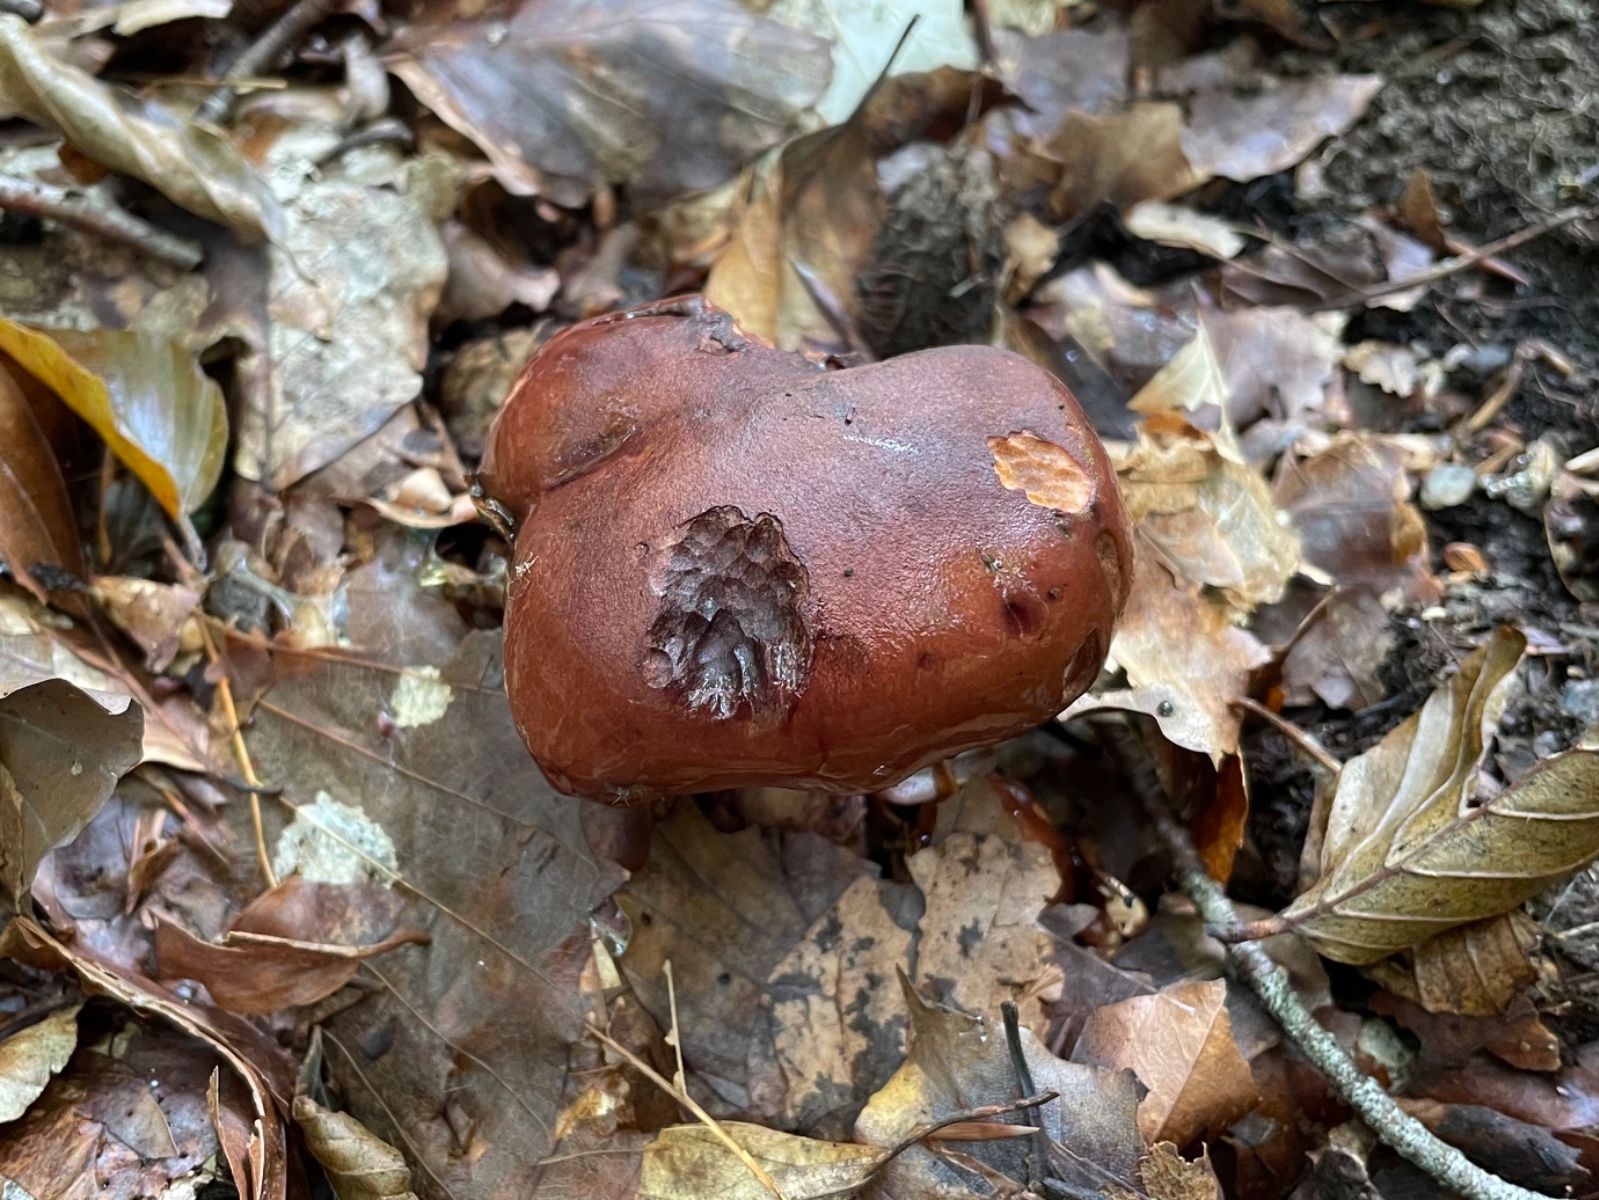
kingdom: Fungi
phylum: Basidiomycota
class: Agaricomycetes
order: Agaricales
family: Tricholomataceae
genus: Tricholoma
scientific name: Tricholoma ustale
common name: sveden ridderhat
